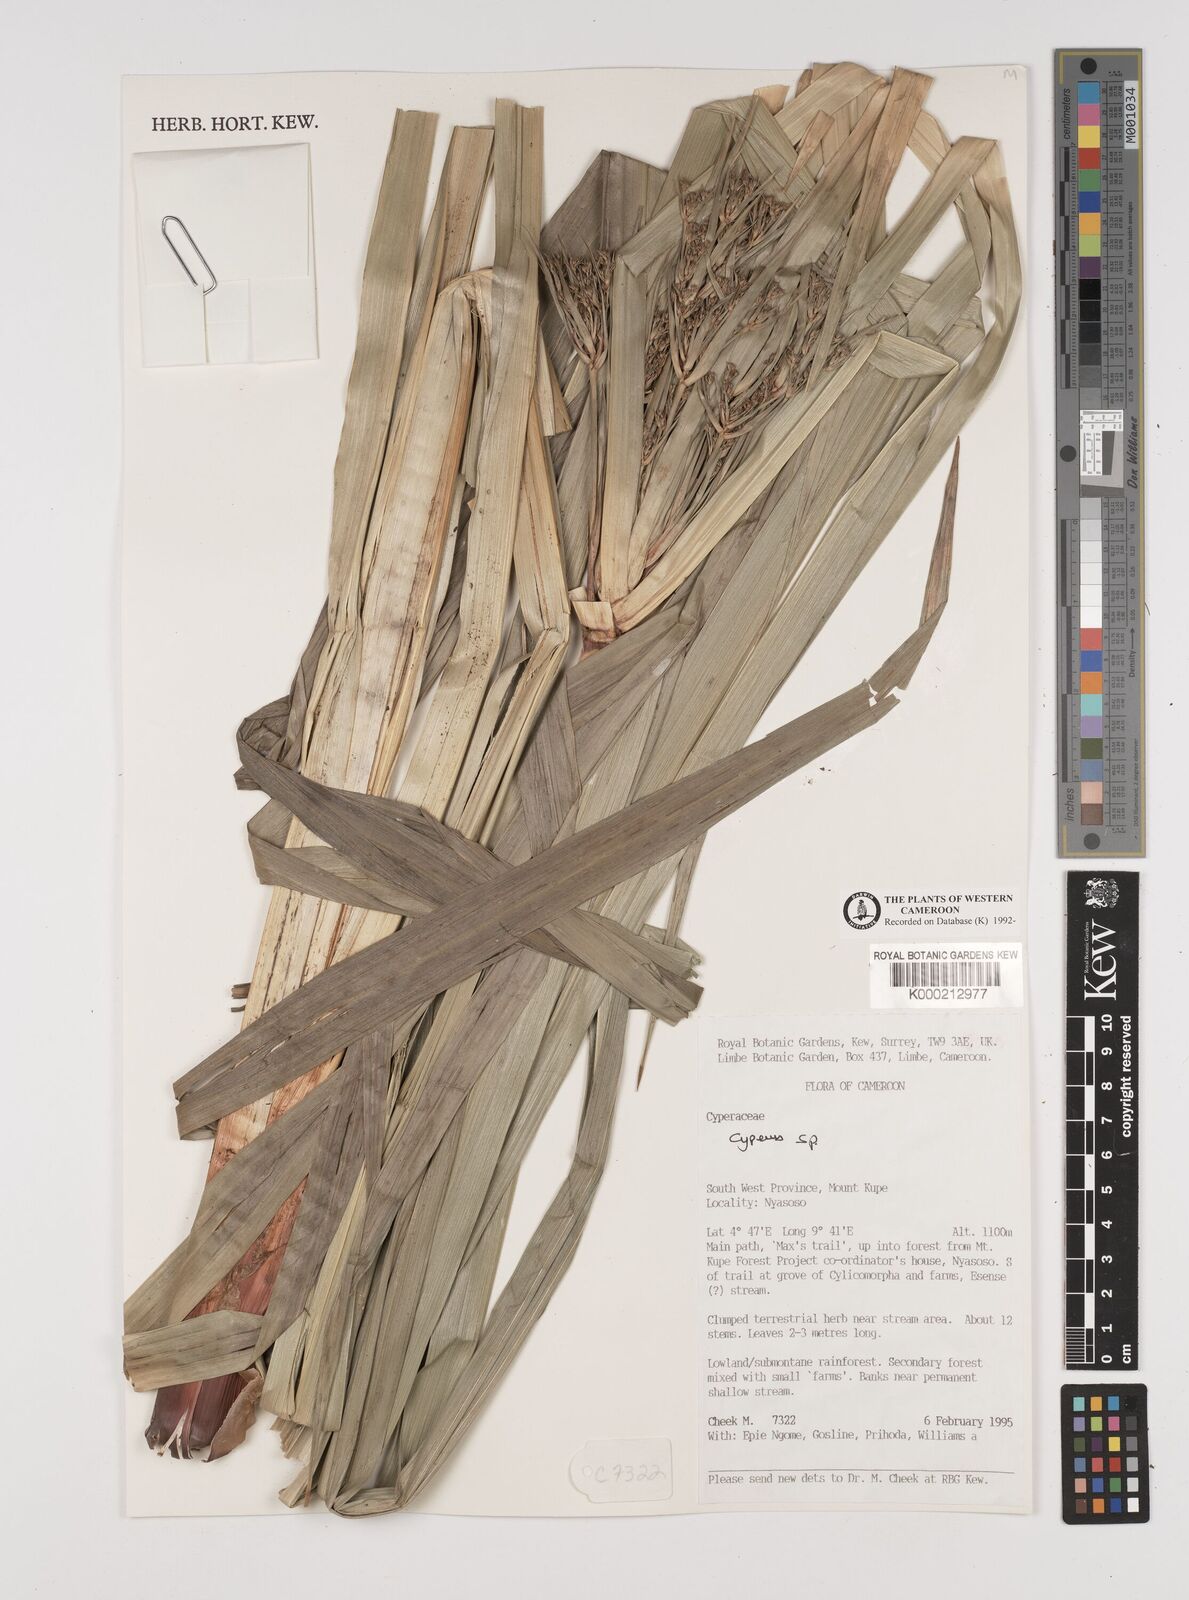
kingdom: Plantae
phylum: Tracheophyta
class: Liliopsida
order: Poales
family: Cyperaceae
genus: Cyperus
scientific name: Cyperus
